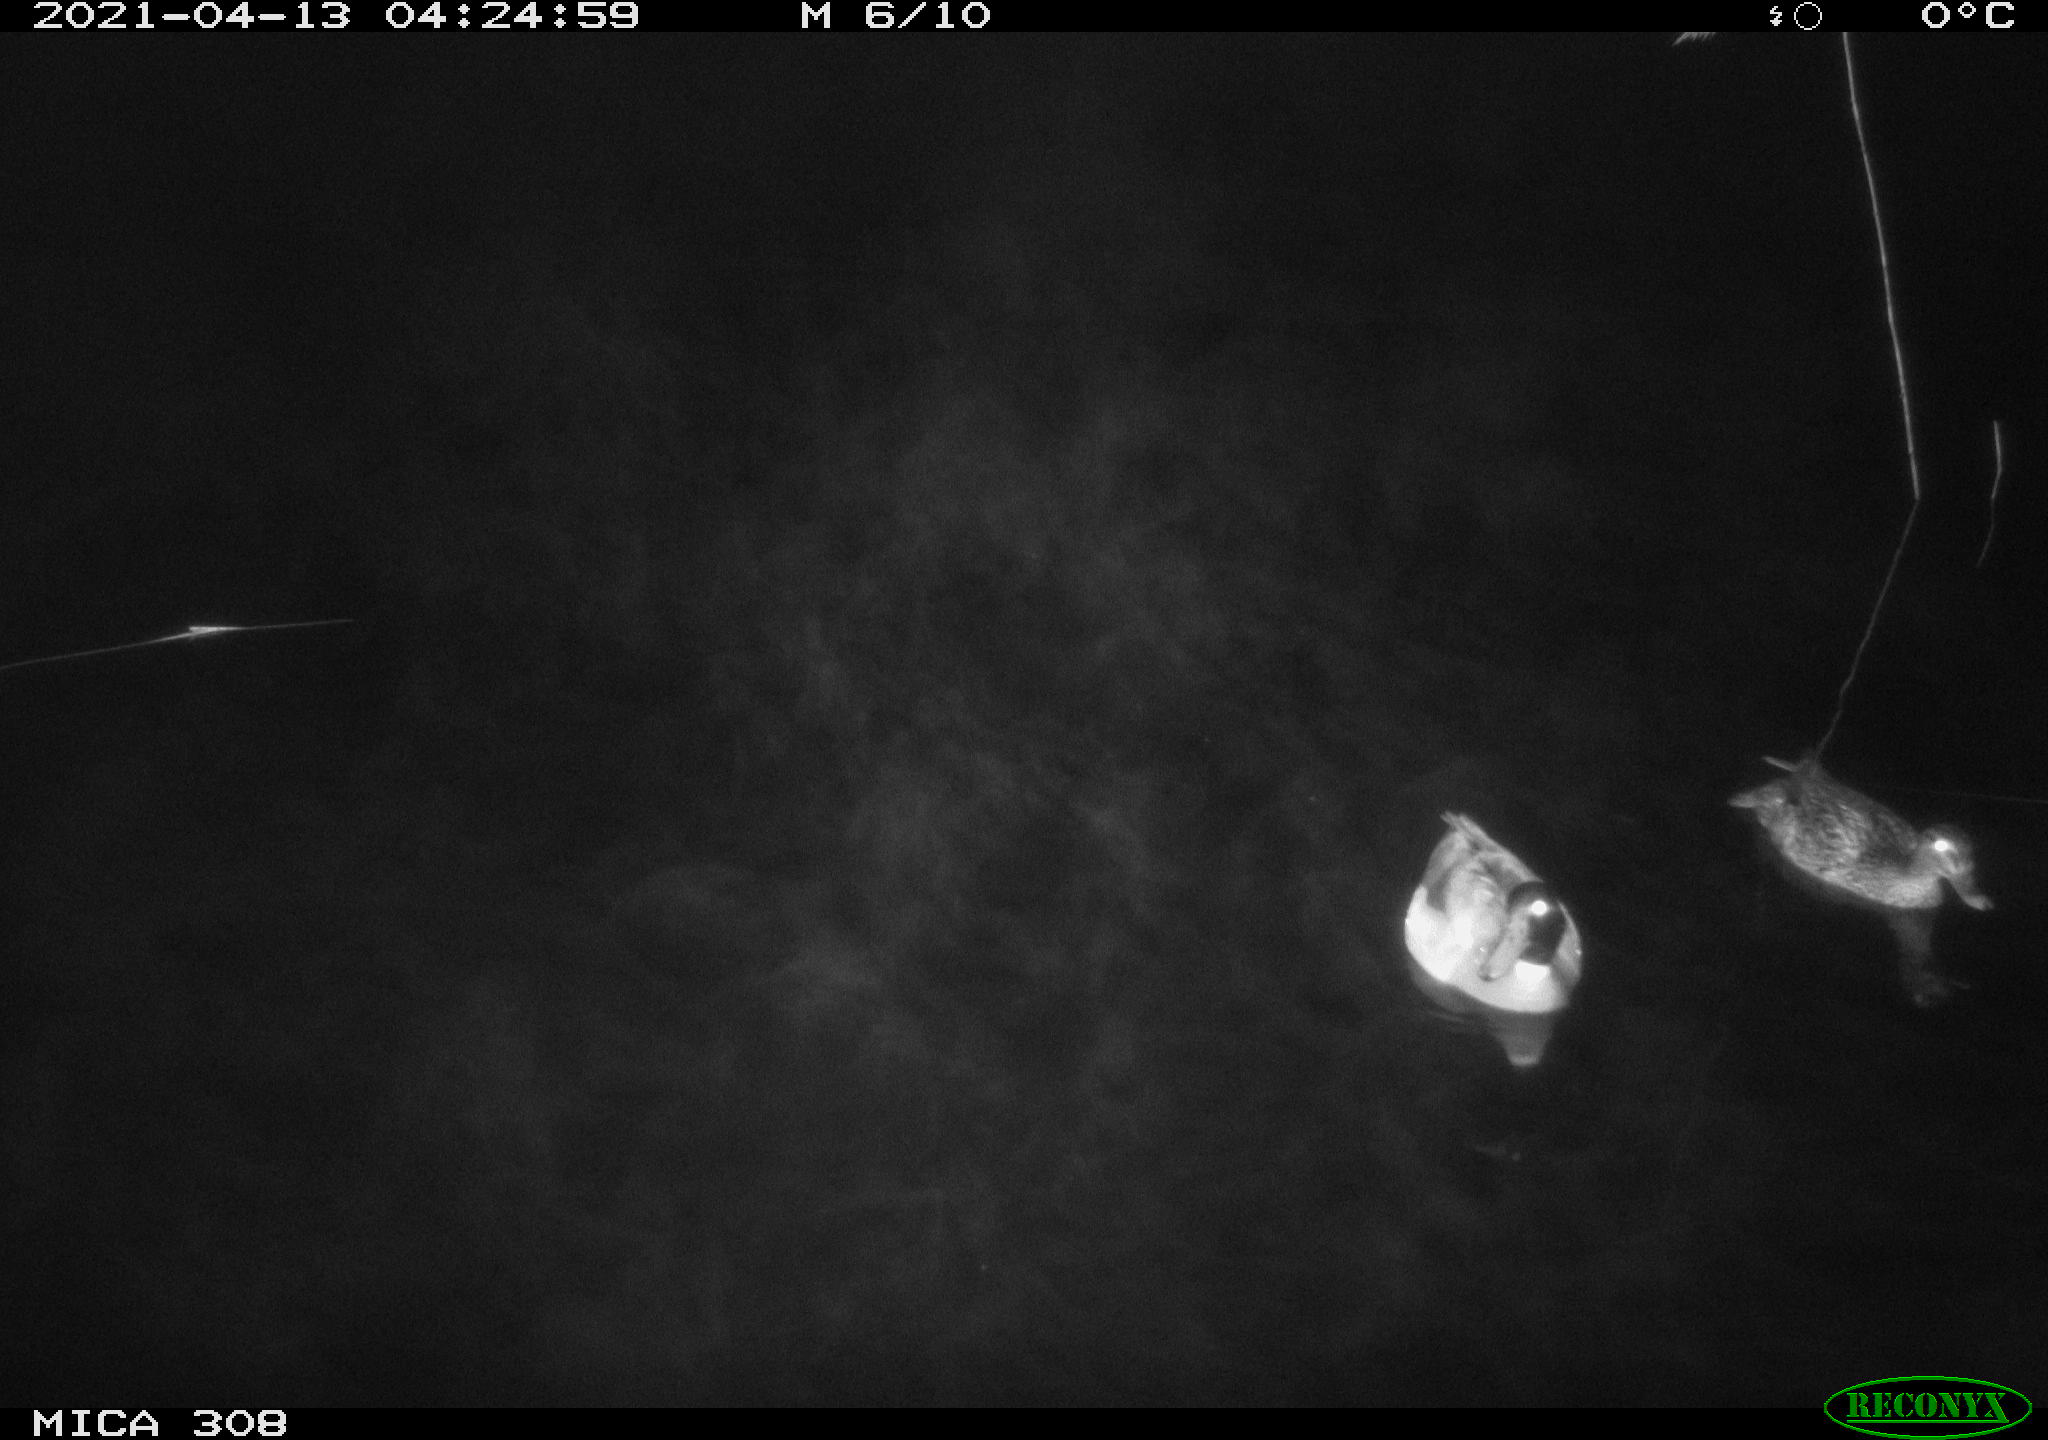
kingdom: Animalia
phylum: Chordata
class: Aves
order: Anseriformes
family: Anatidae
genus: Anas
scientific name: Anas platyrhynchos
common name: Mallard
